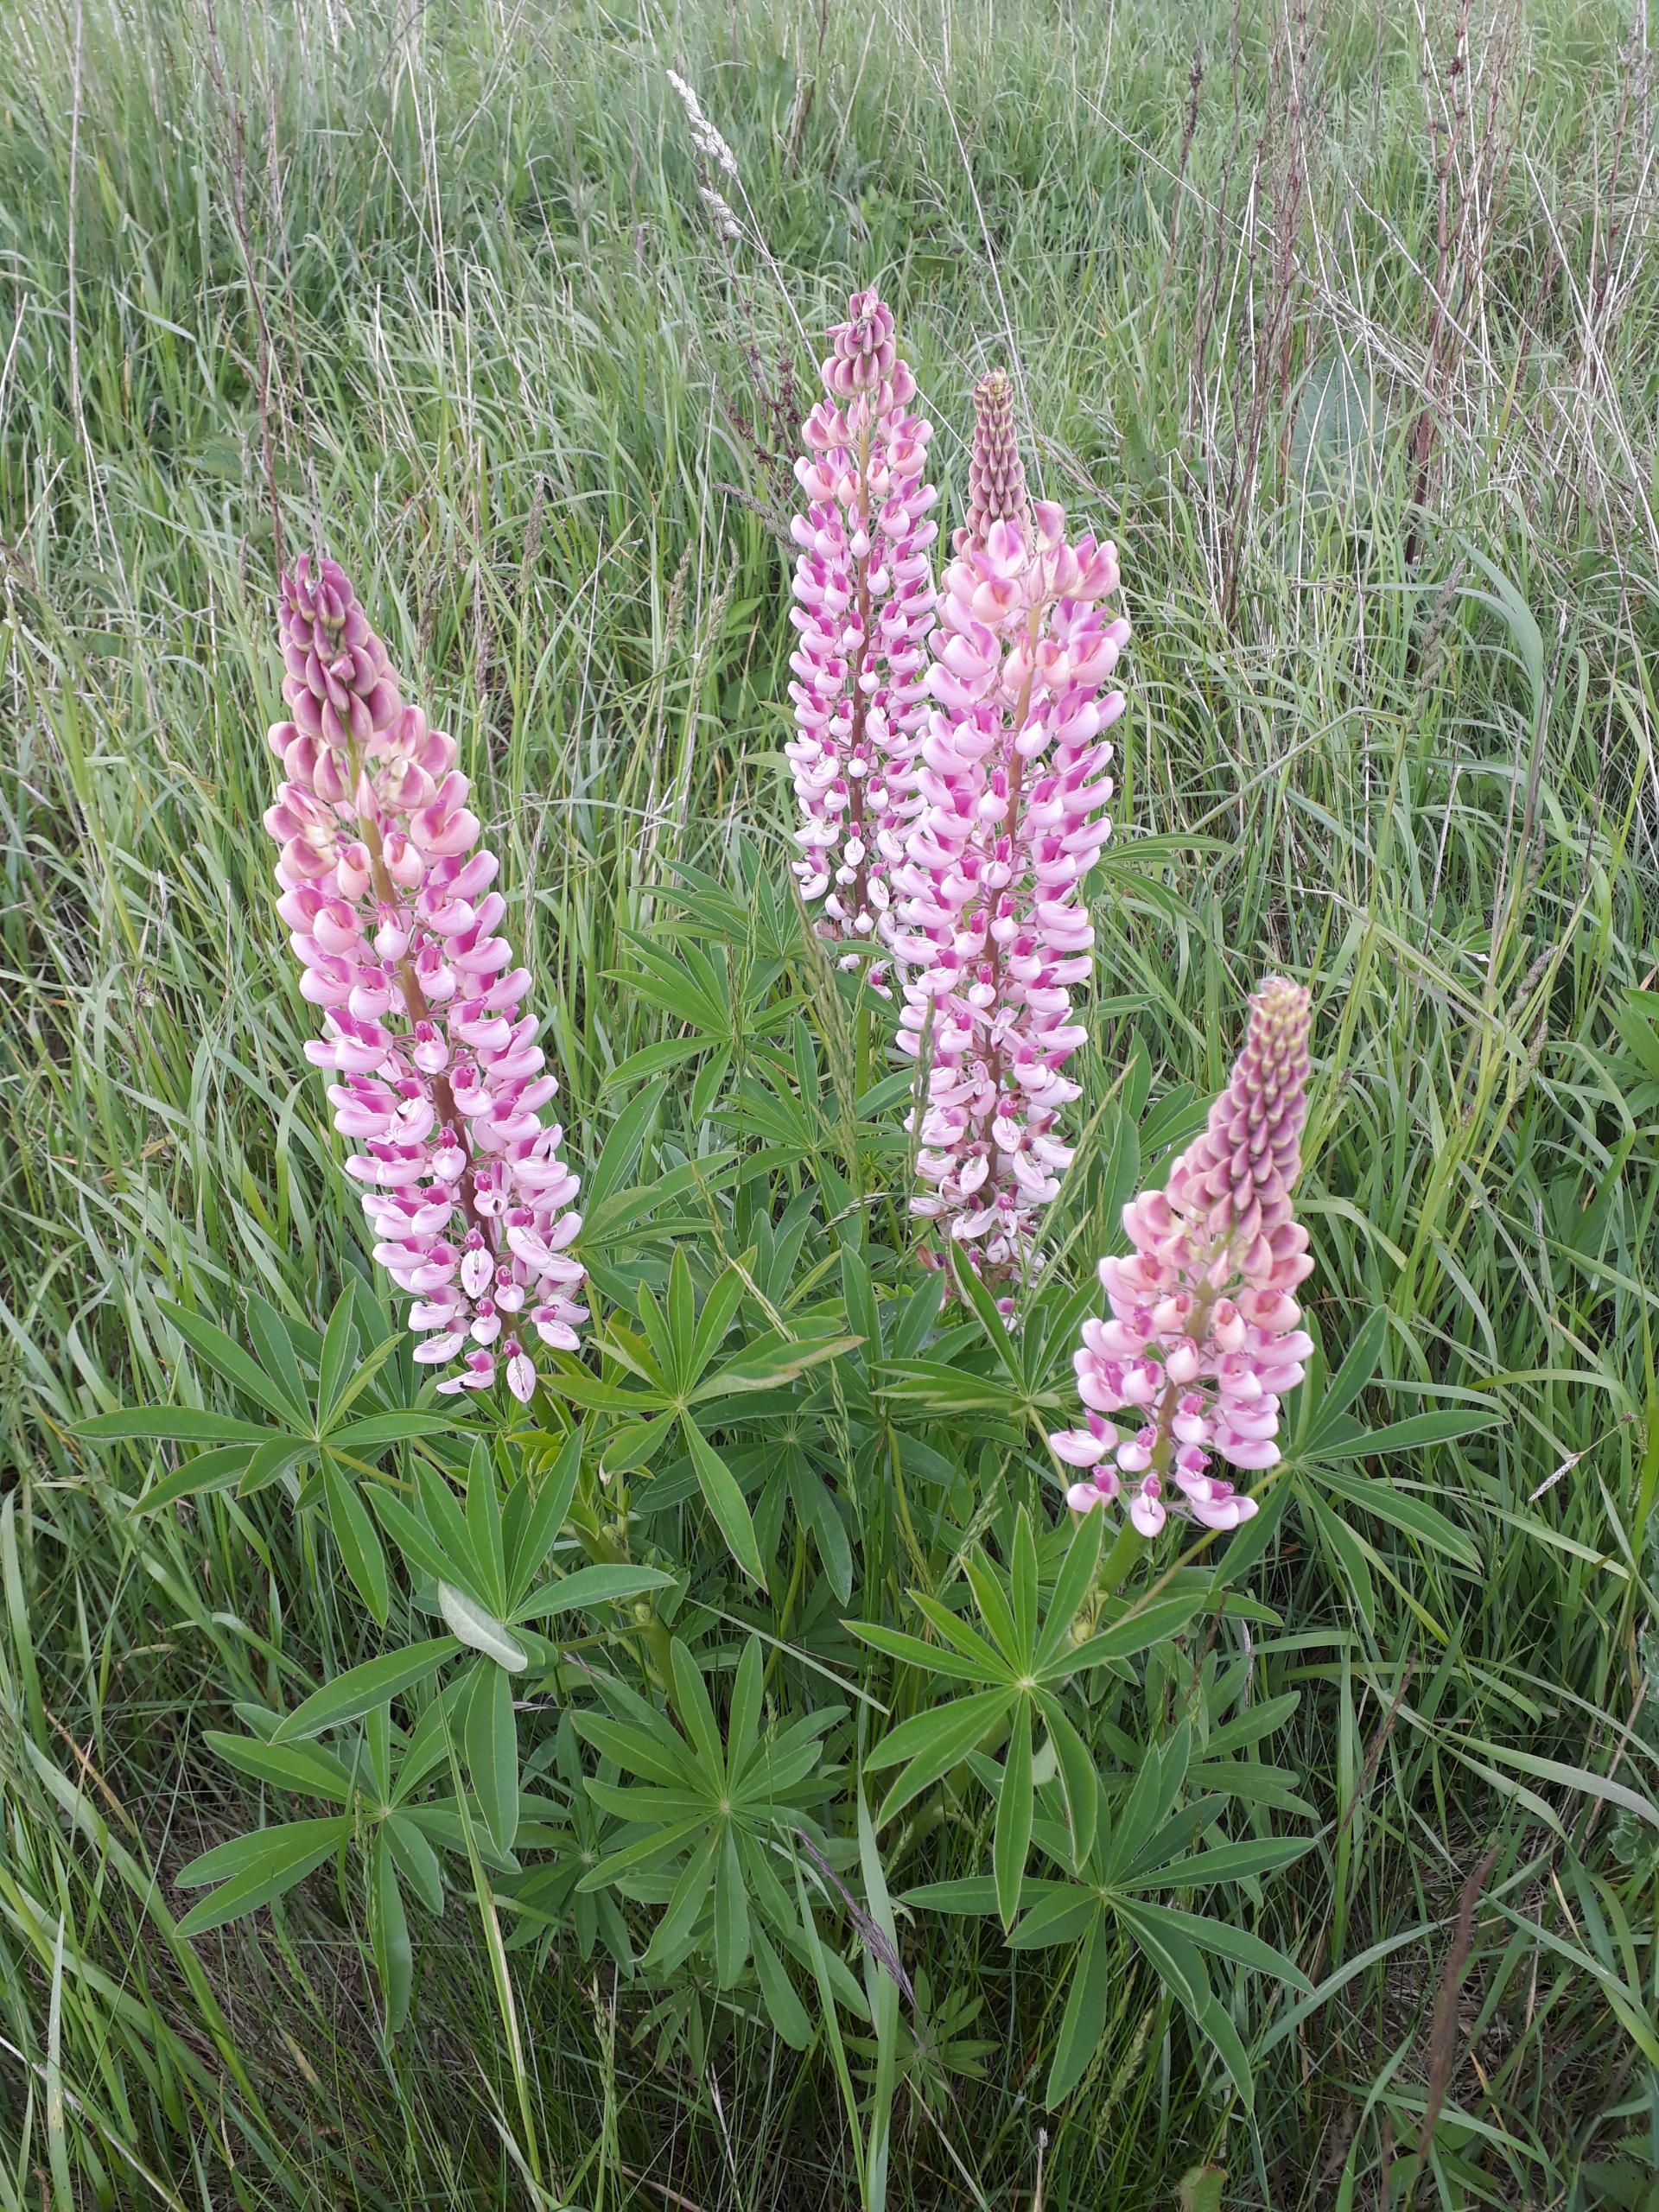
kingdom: Plantae
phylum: Tracheophyta
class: Magnoliopsida
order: Fabales
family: Fabaceae
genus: Lupinus
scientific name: Lupinus polyphyllus
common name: Mangebladet lupin
